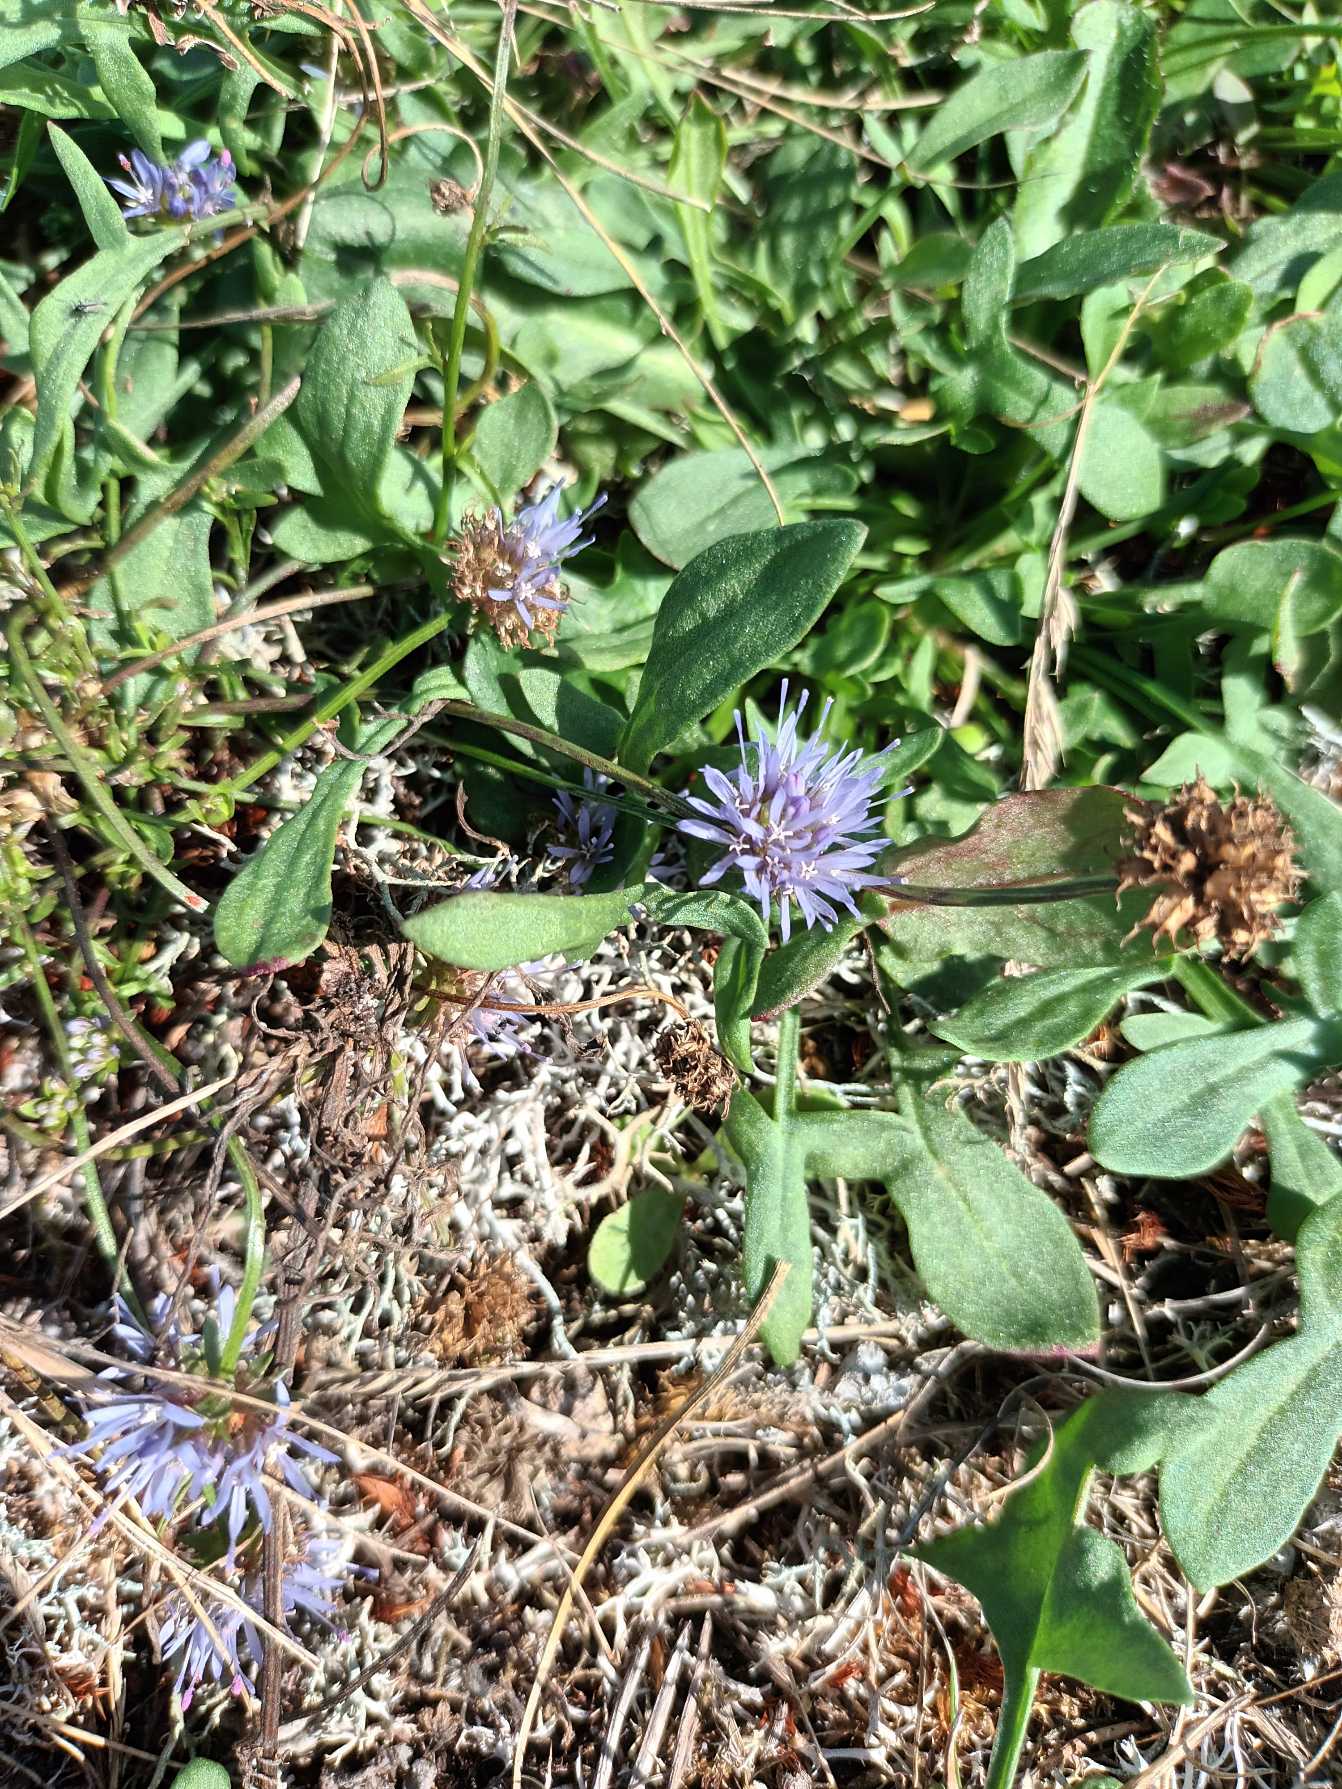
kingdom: Plantae
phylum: Tracheophyta
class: Magnoliopsida
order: Asterales
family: Campanulaceae
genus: Jasione
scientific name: Jasione montana
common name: Blåmunke
